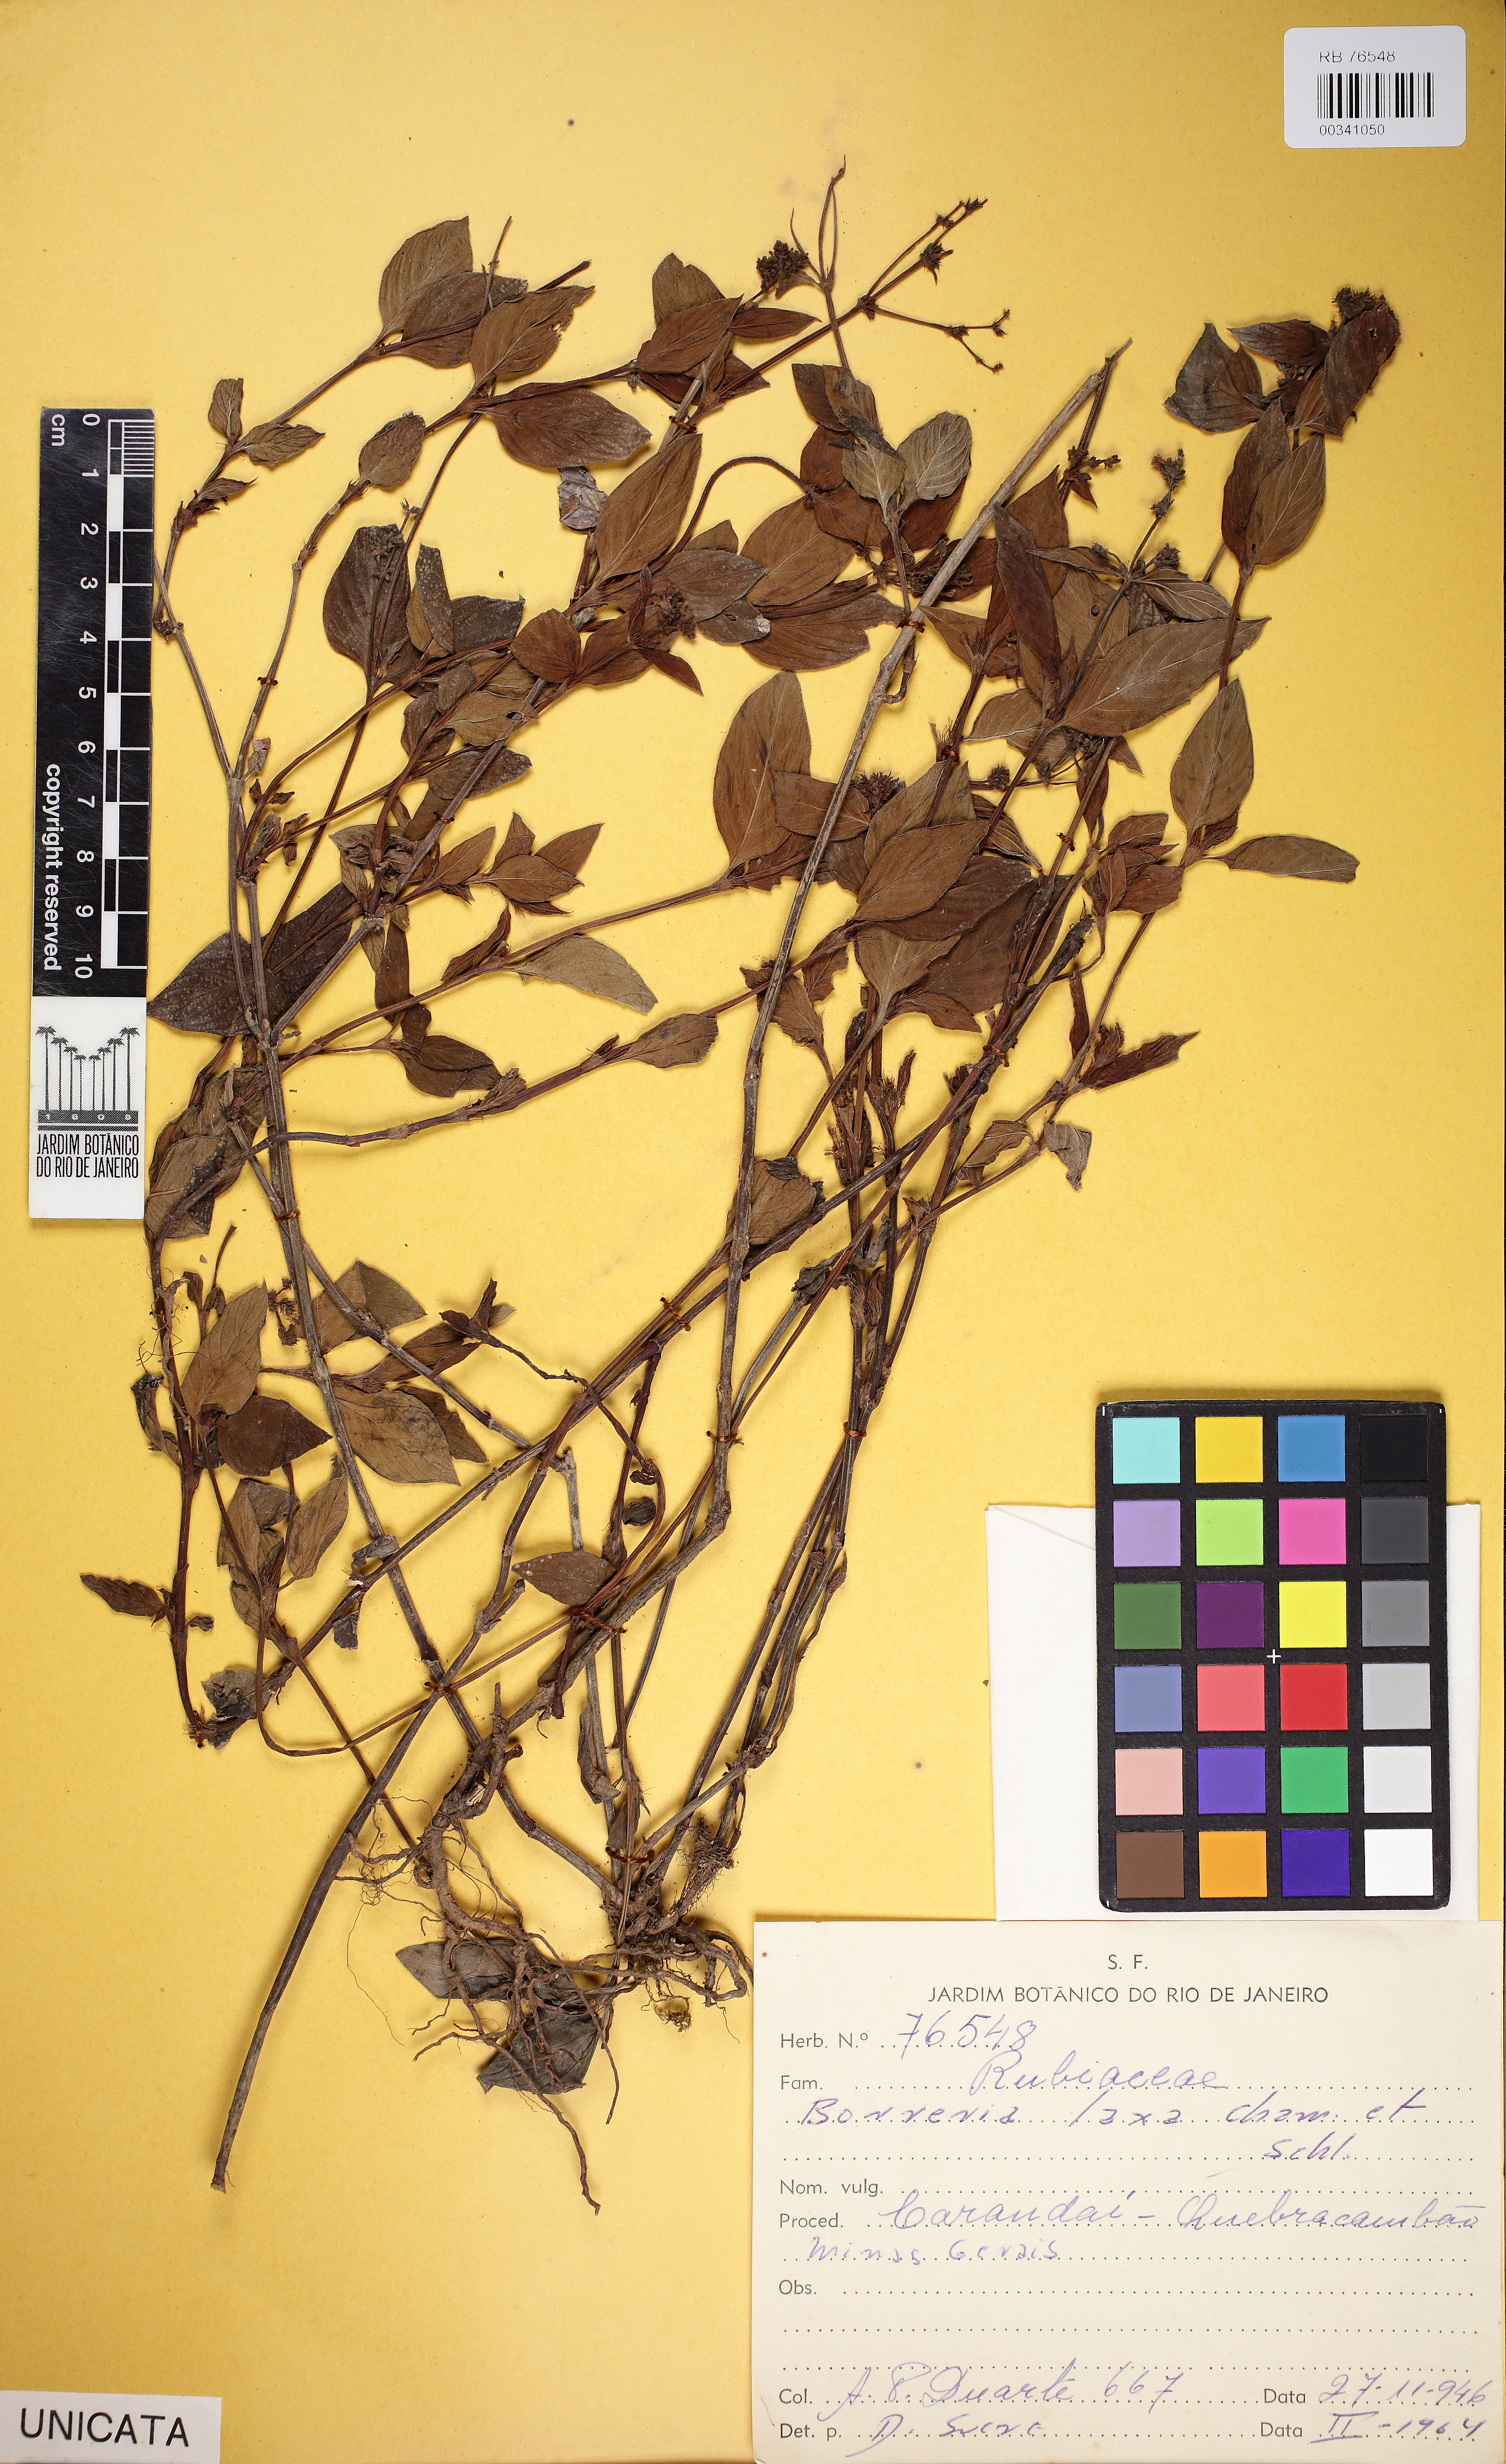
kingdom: Plantae
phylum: Tracheophyta
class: Magnoliopsida
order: Gentianales
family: Rubiaceae
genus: Galianthe
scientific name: Galianthe hispidula
